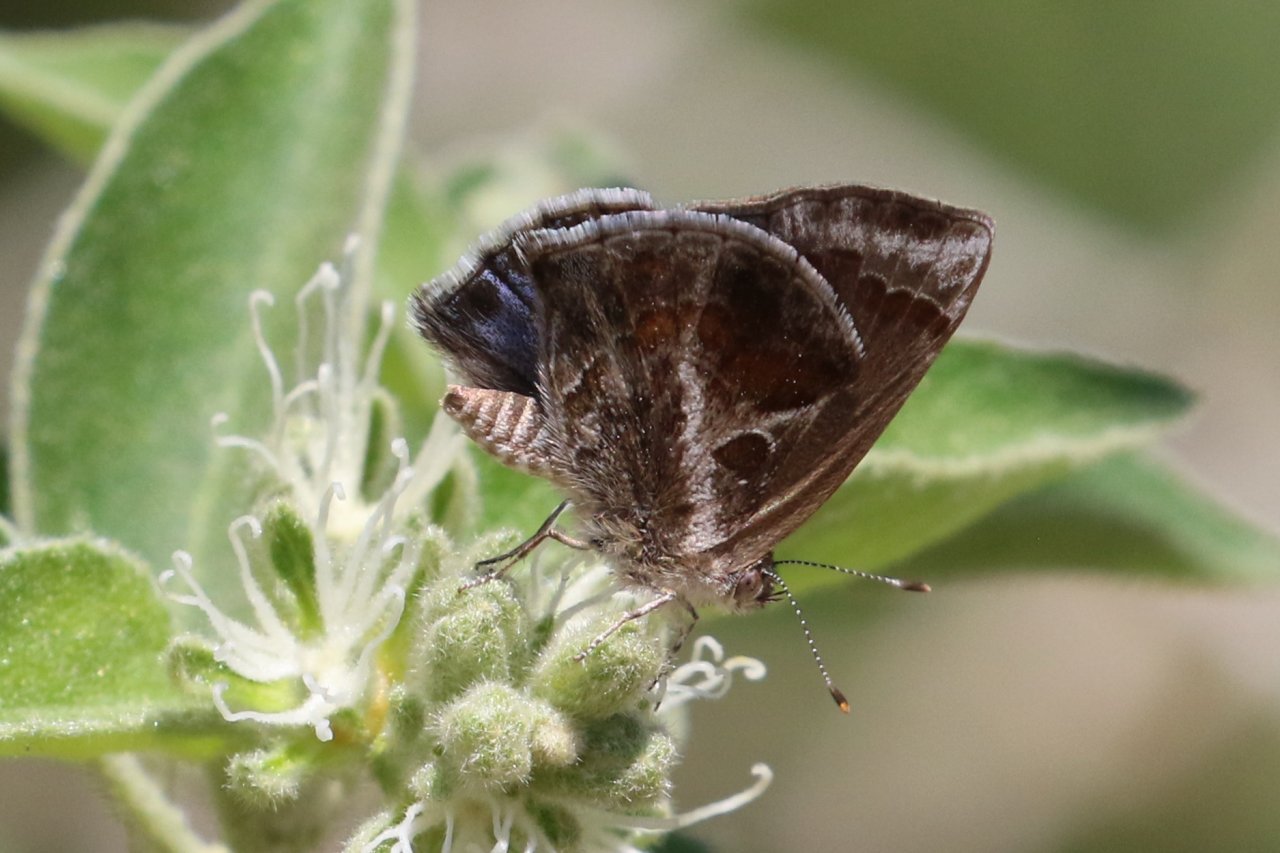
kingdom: Animalia
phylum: Arthropoda
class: Insecta
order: Lepidoptera
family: Lycaenidae
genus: Strymon
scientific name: Strymon bazochii
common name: Lantana Scrub-Hairstreak
